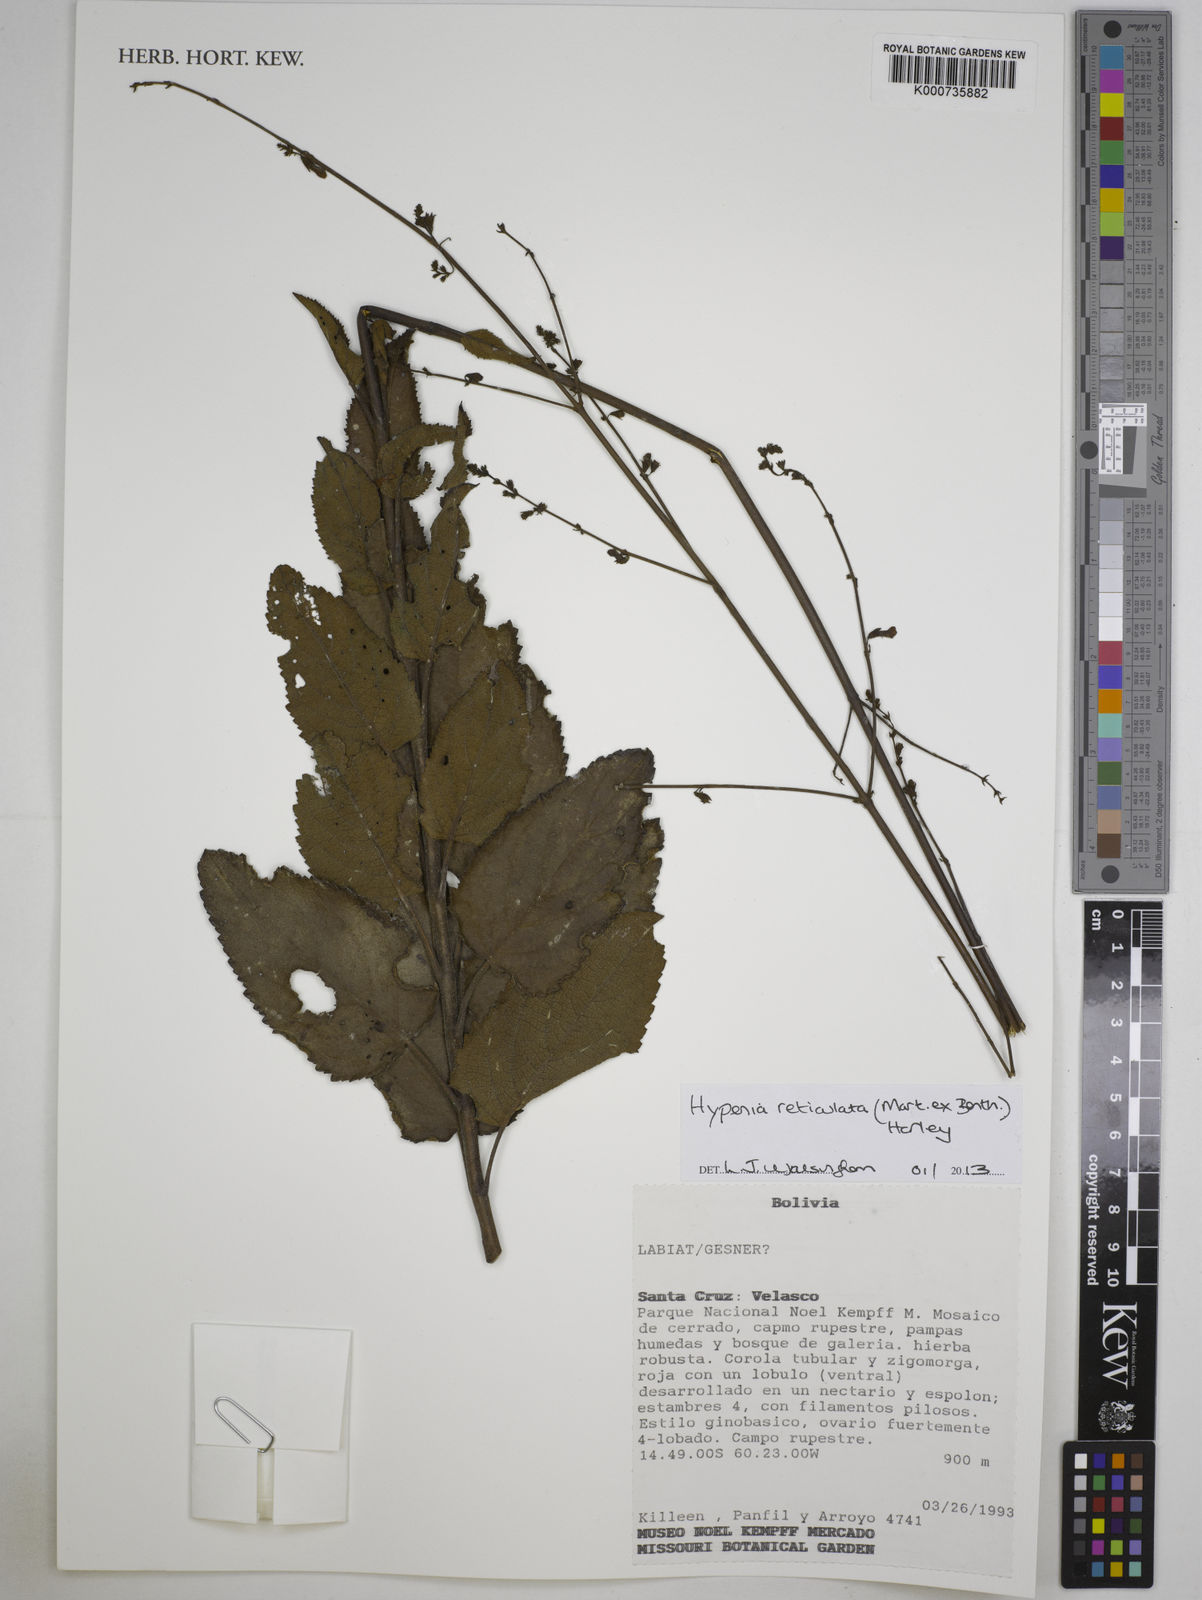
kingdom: Plantae
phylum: Tracheophyta
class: Magnoliopsida
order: Lamiales
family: Lamiaceae
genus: Hypenia
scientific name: Hypenia reticulata
